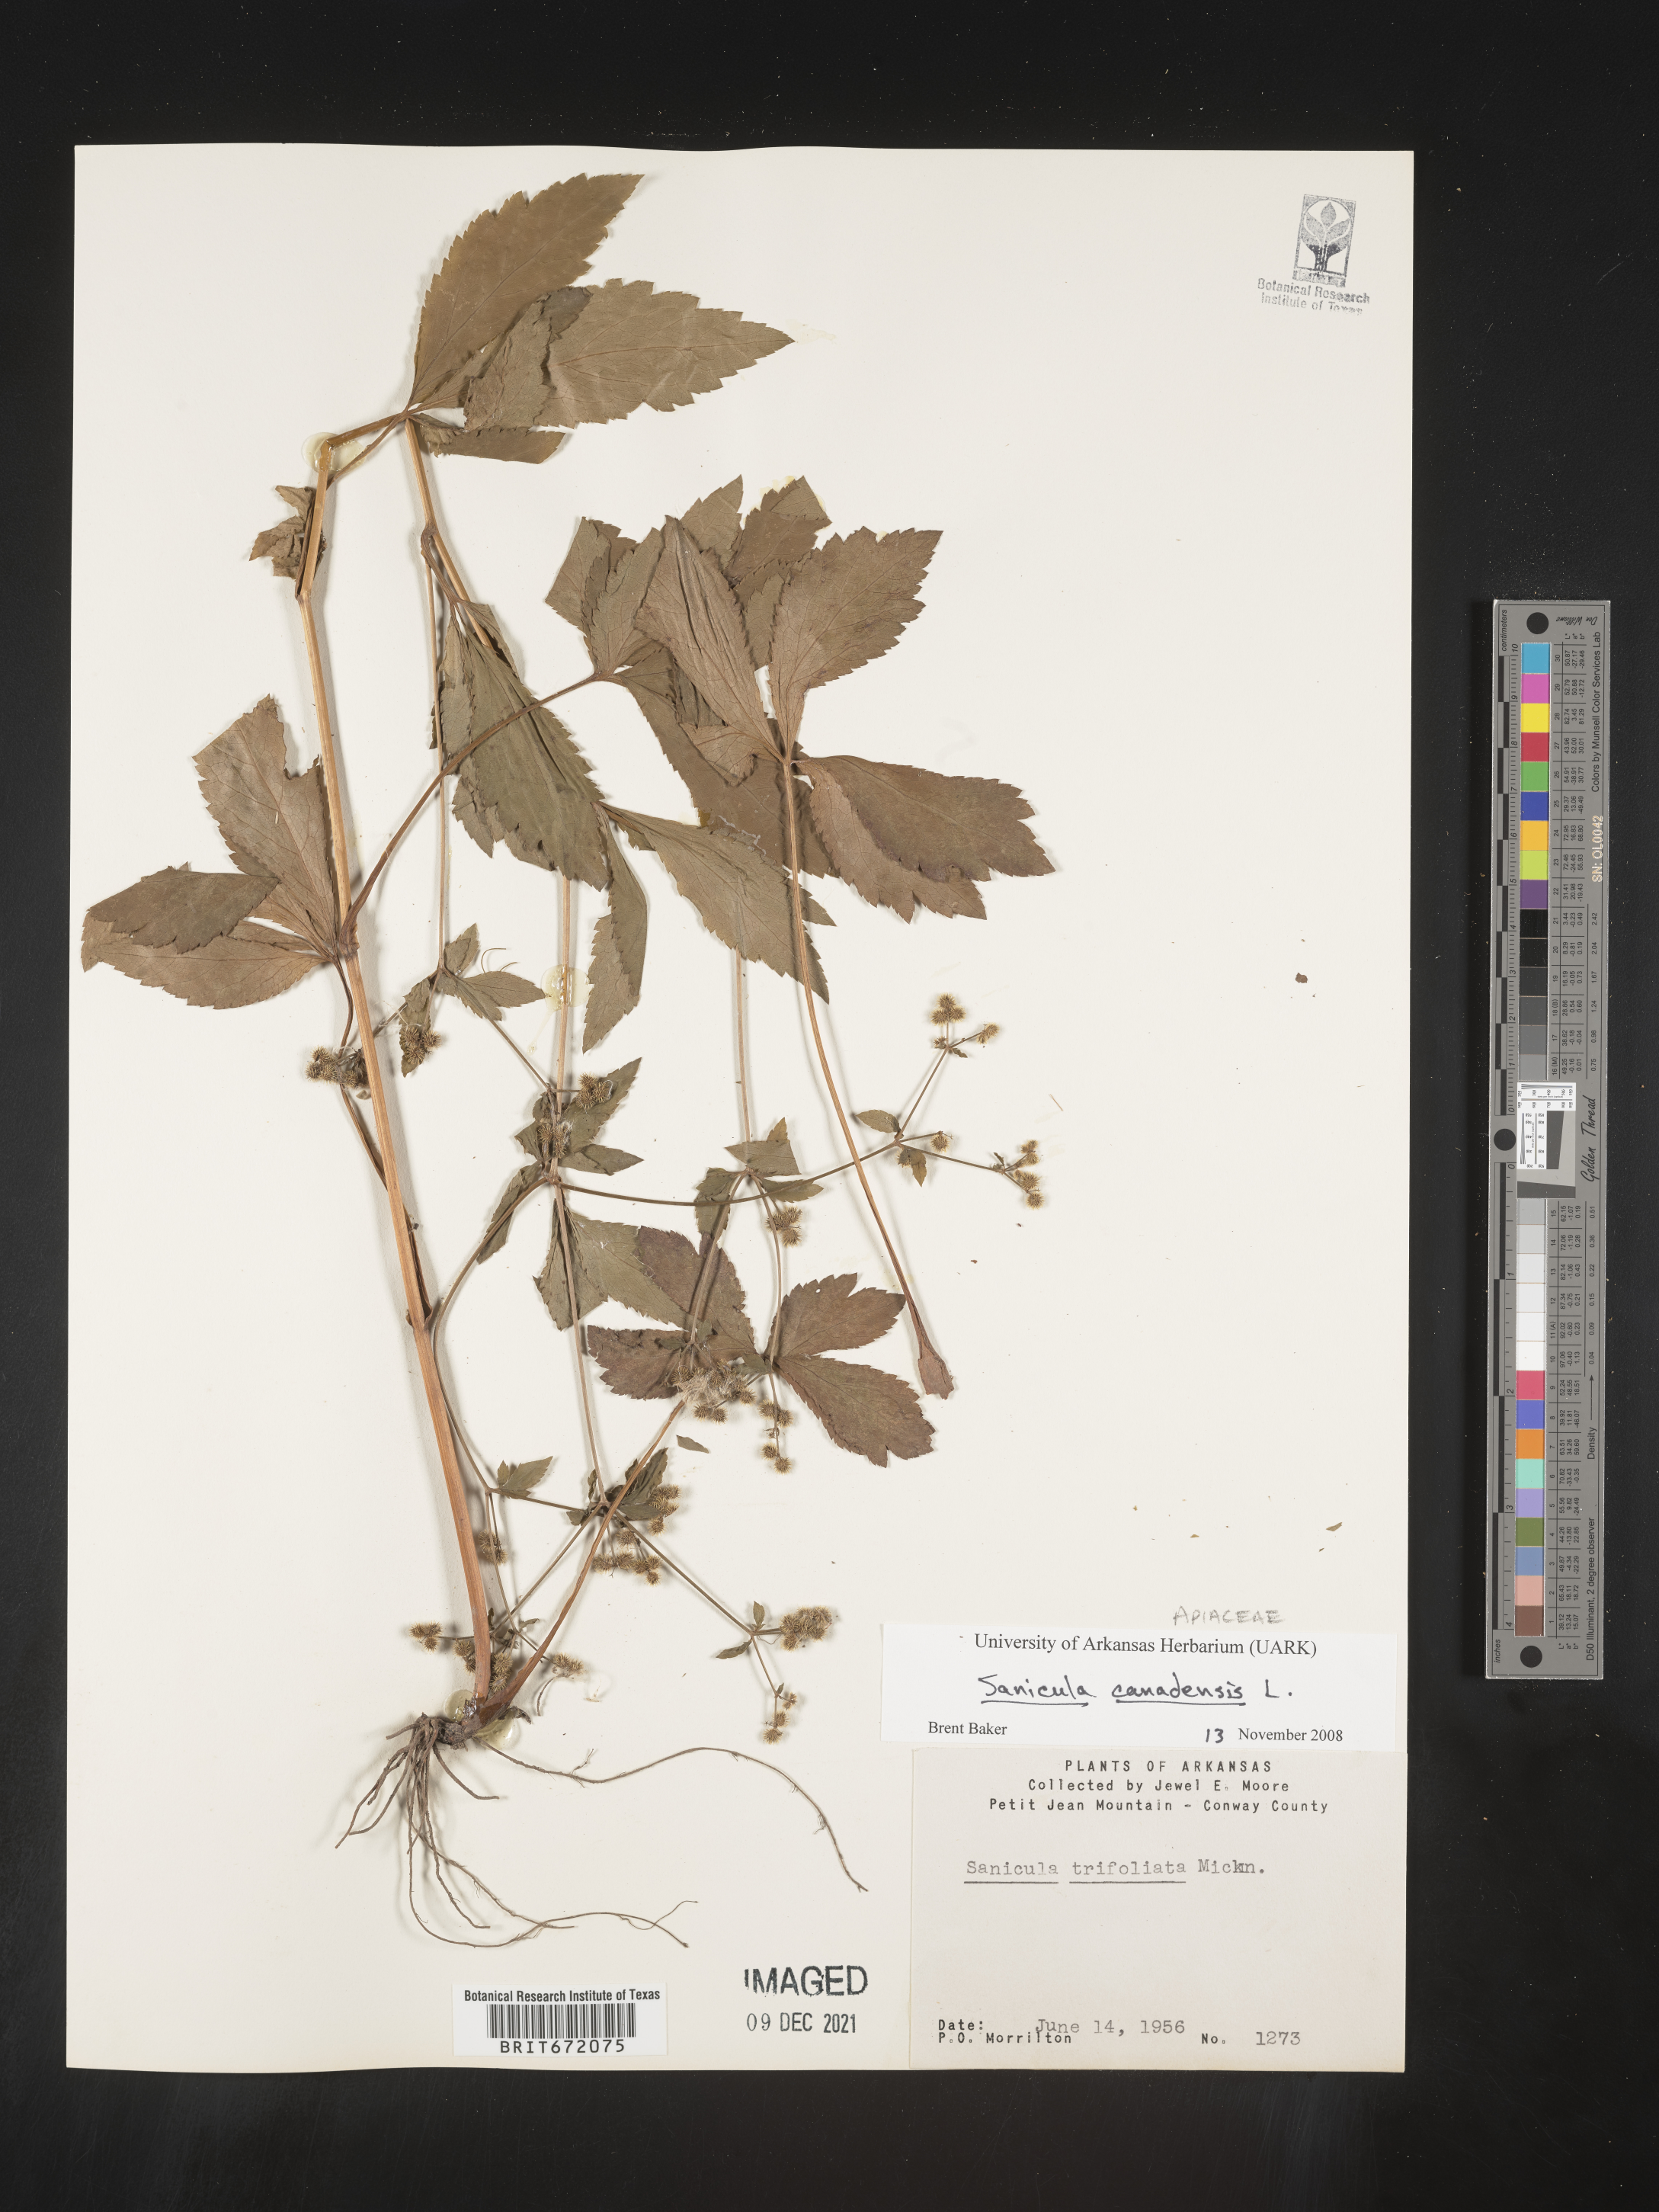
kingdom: Plantae
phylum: Tracheophyta
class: Magnoliopsida
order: Apiales
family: Apiaceae
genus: Sanicula
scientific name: Sanicula canadensis
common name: Canada sanicle
